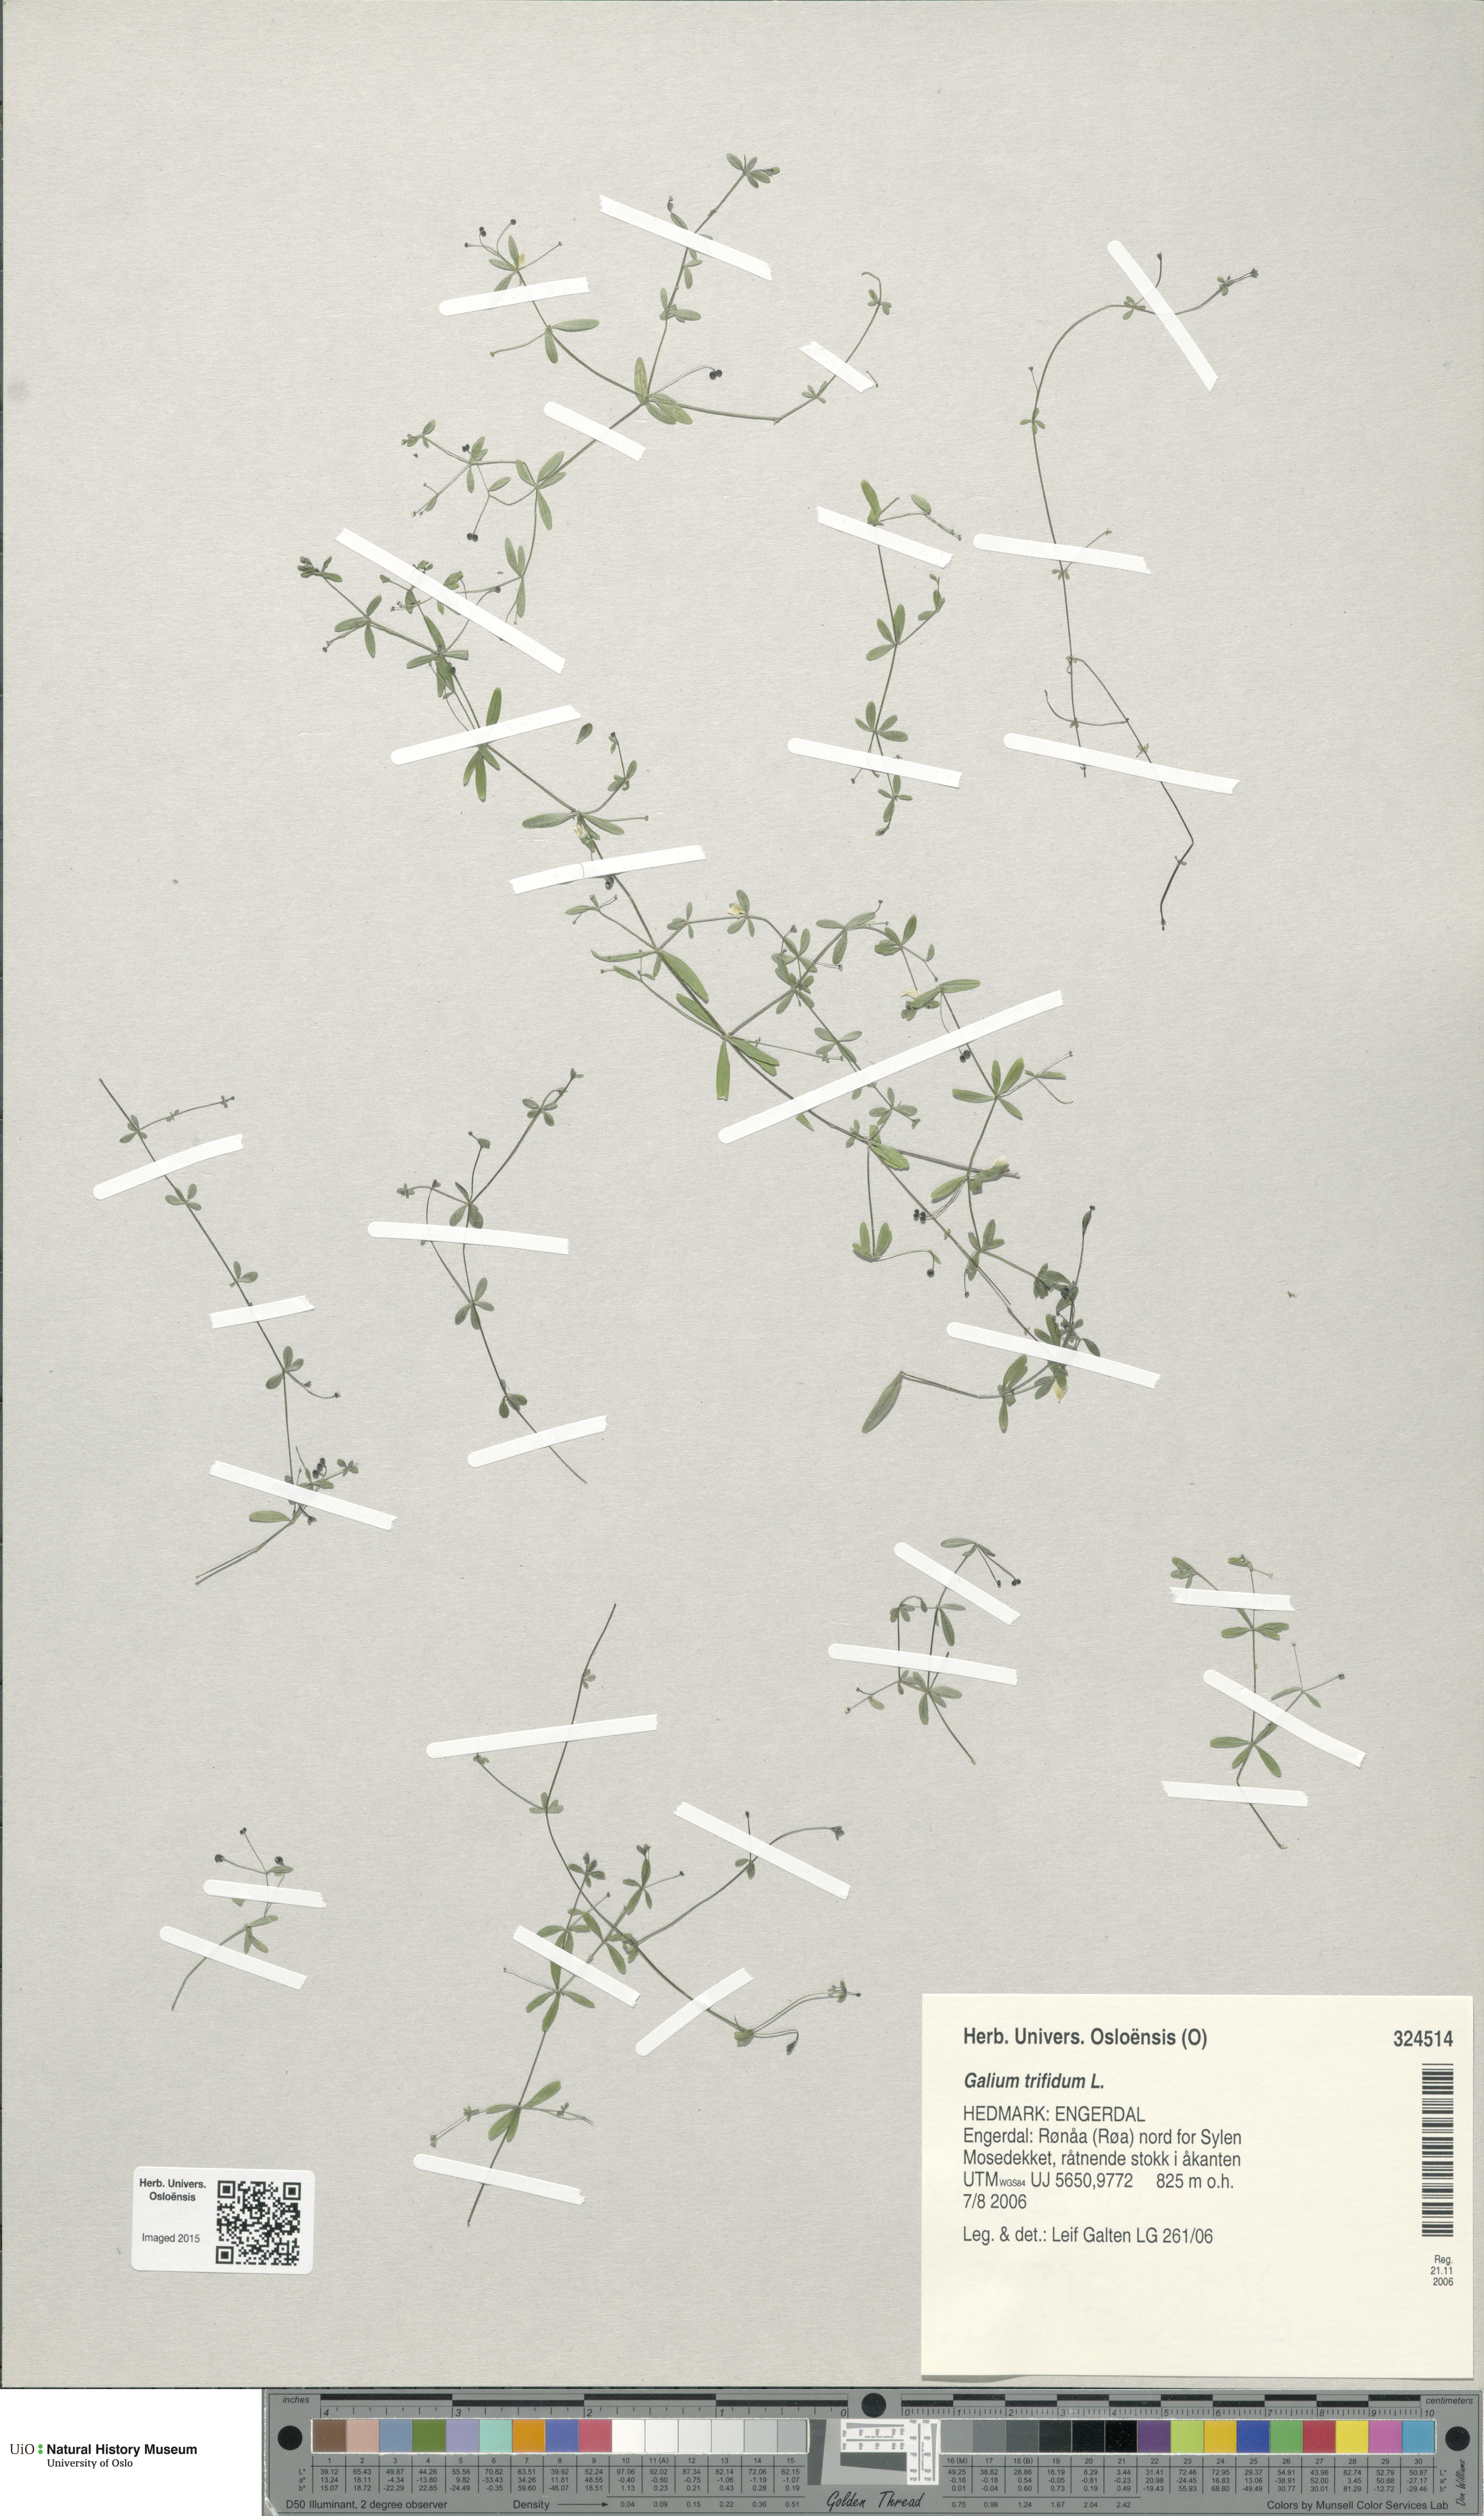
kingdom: Plantae
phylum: Tracheophyta
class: Magnoliopsida
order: Gentianales
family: Rubiaceae
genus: Galium
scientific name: Galium trifidum
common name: Small bedstraw
